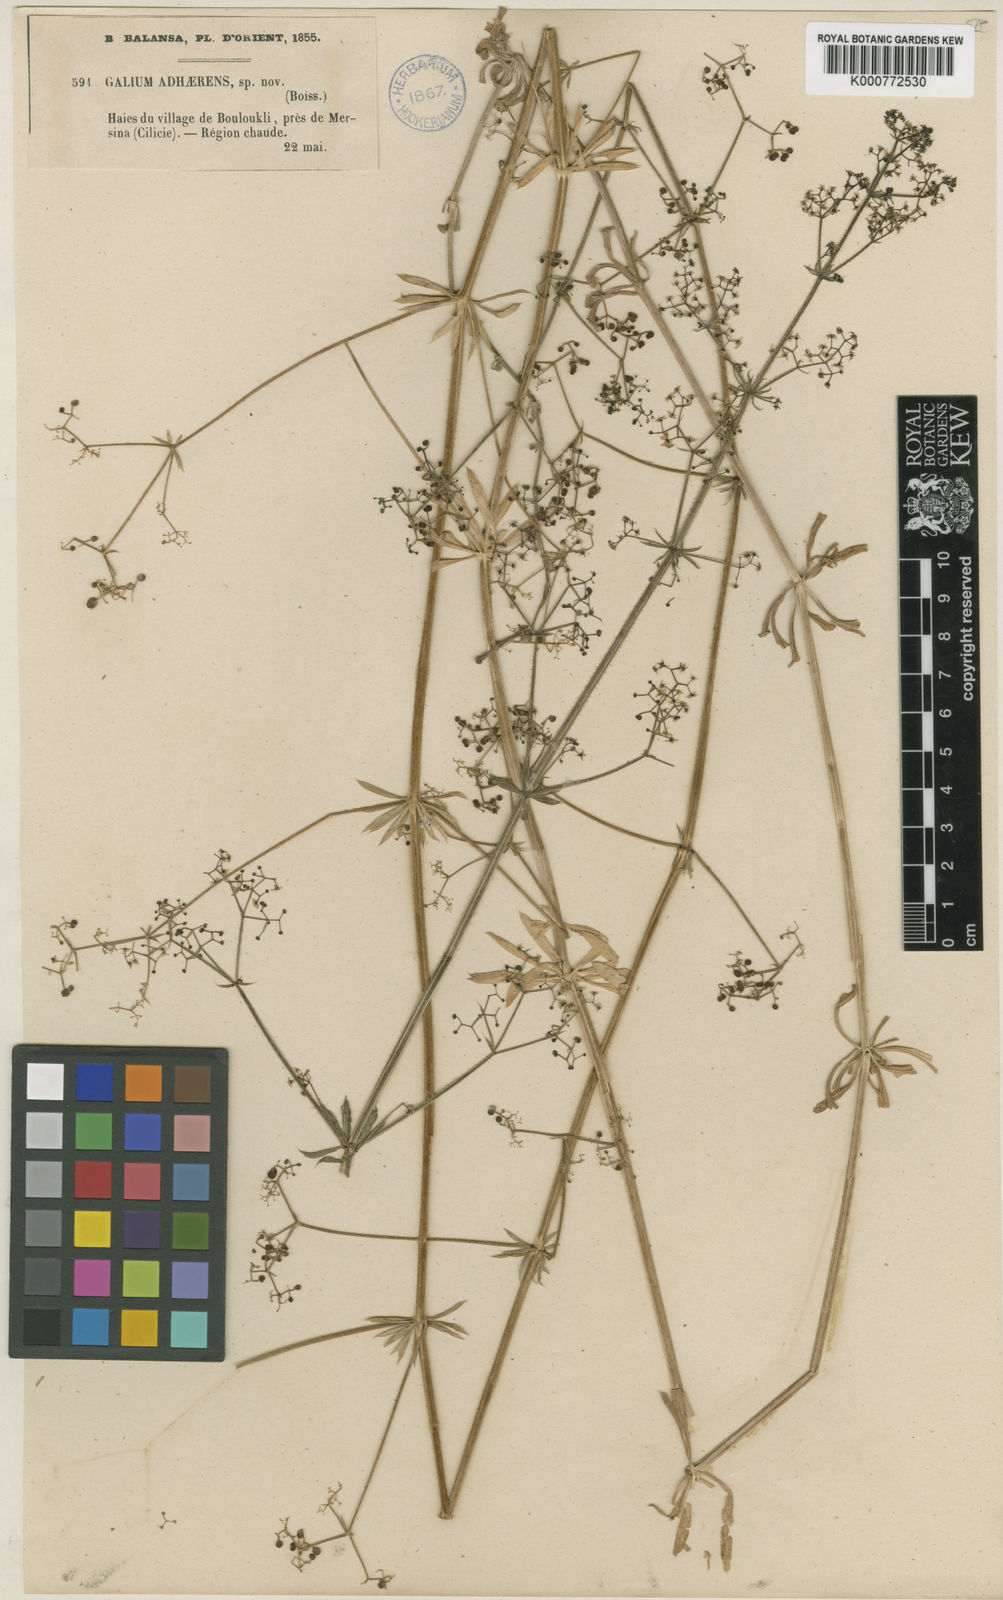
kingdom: Plantae
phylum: Tracheophyta
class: Magnoliopsida
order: Gentianales
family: Rubiaceae
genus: Galium
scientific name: Galium adhaerens
